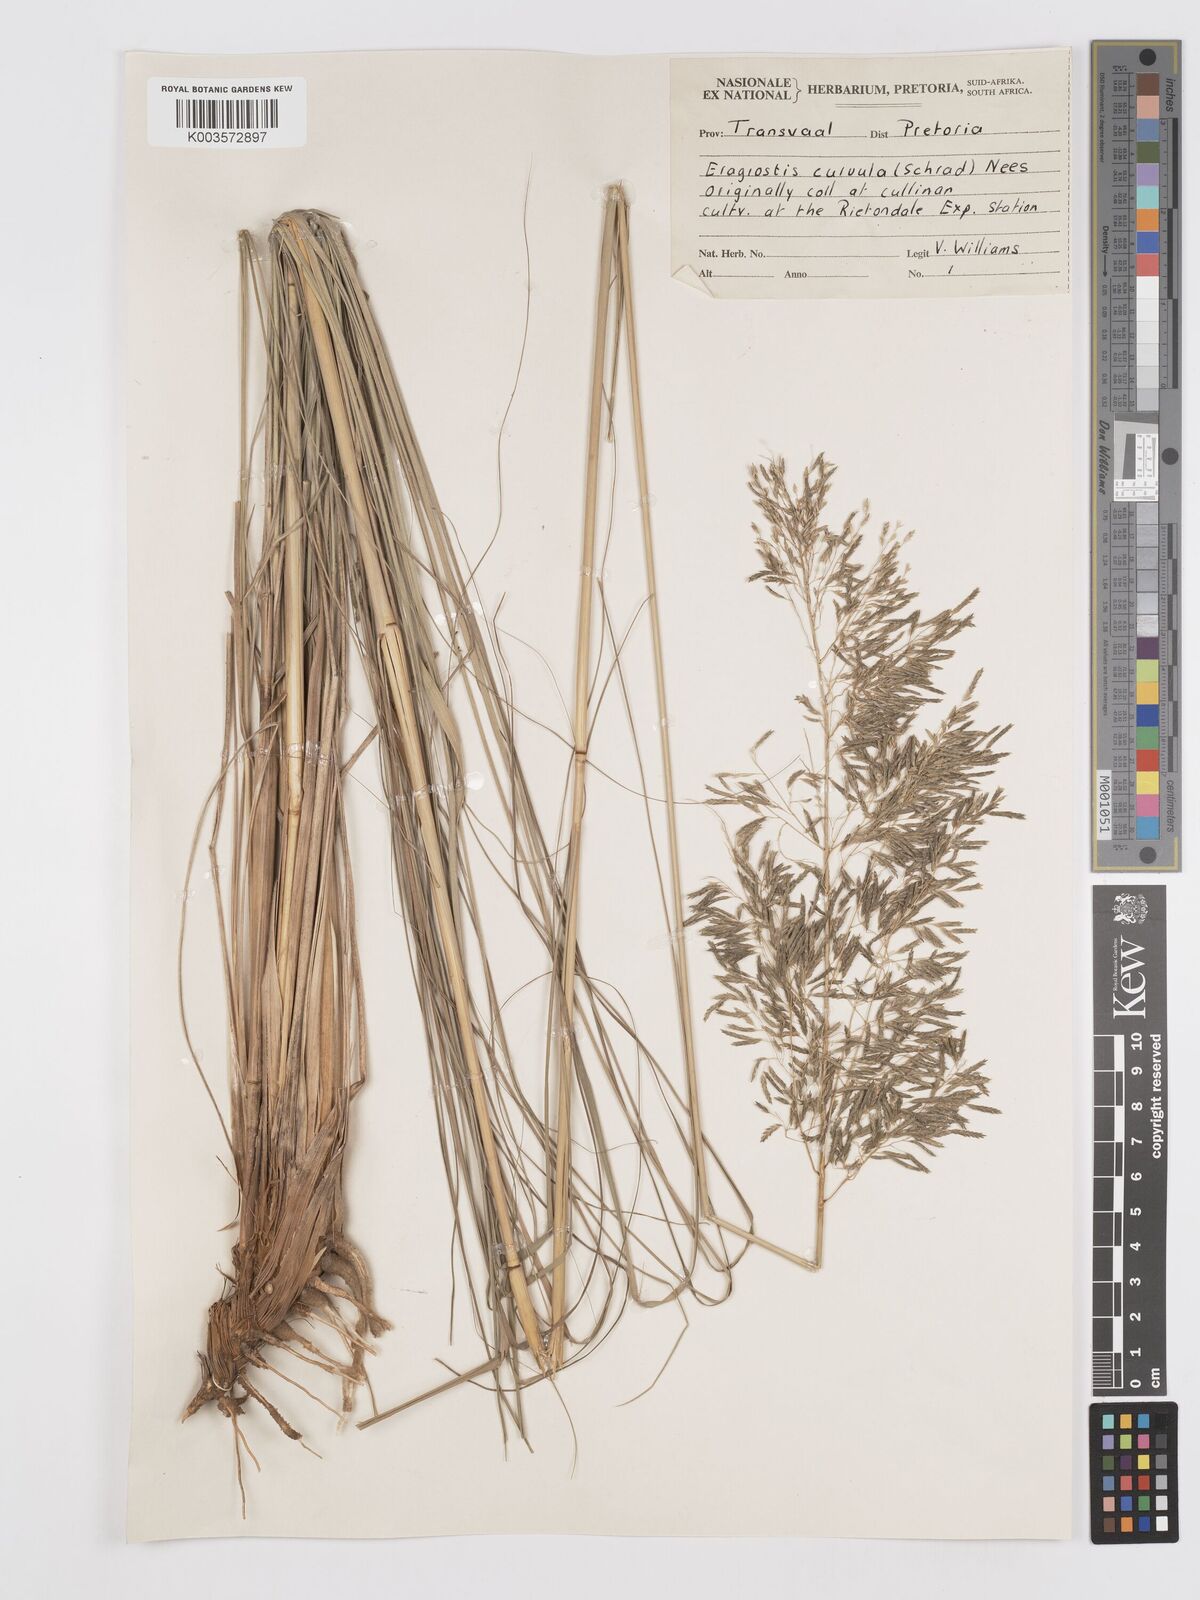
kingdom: Plantae
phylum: Tracheophyta
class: Liliopsida
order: Poales
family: Poaceae
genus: Eragrostis
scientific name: Eragrostis curvula
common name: African love-grass
